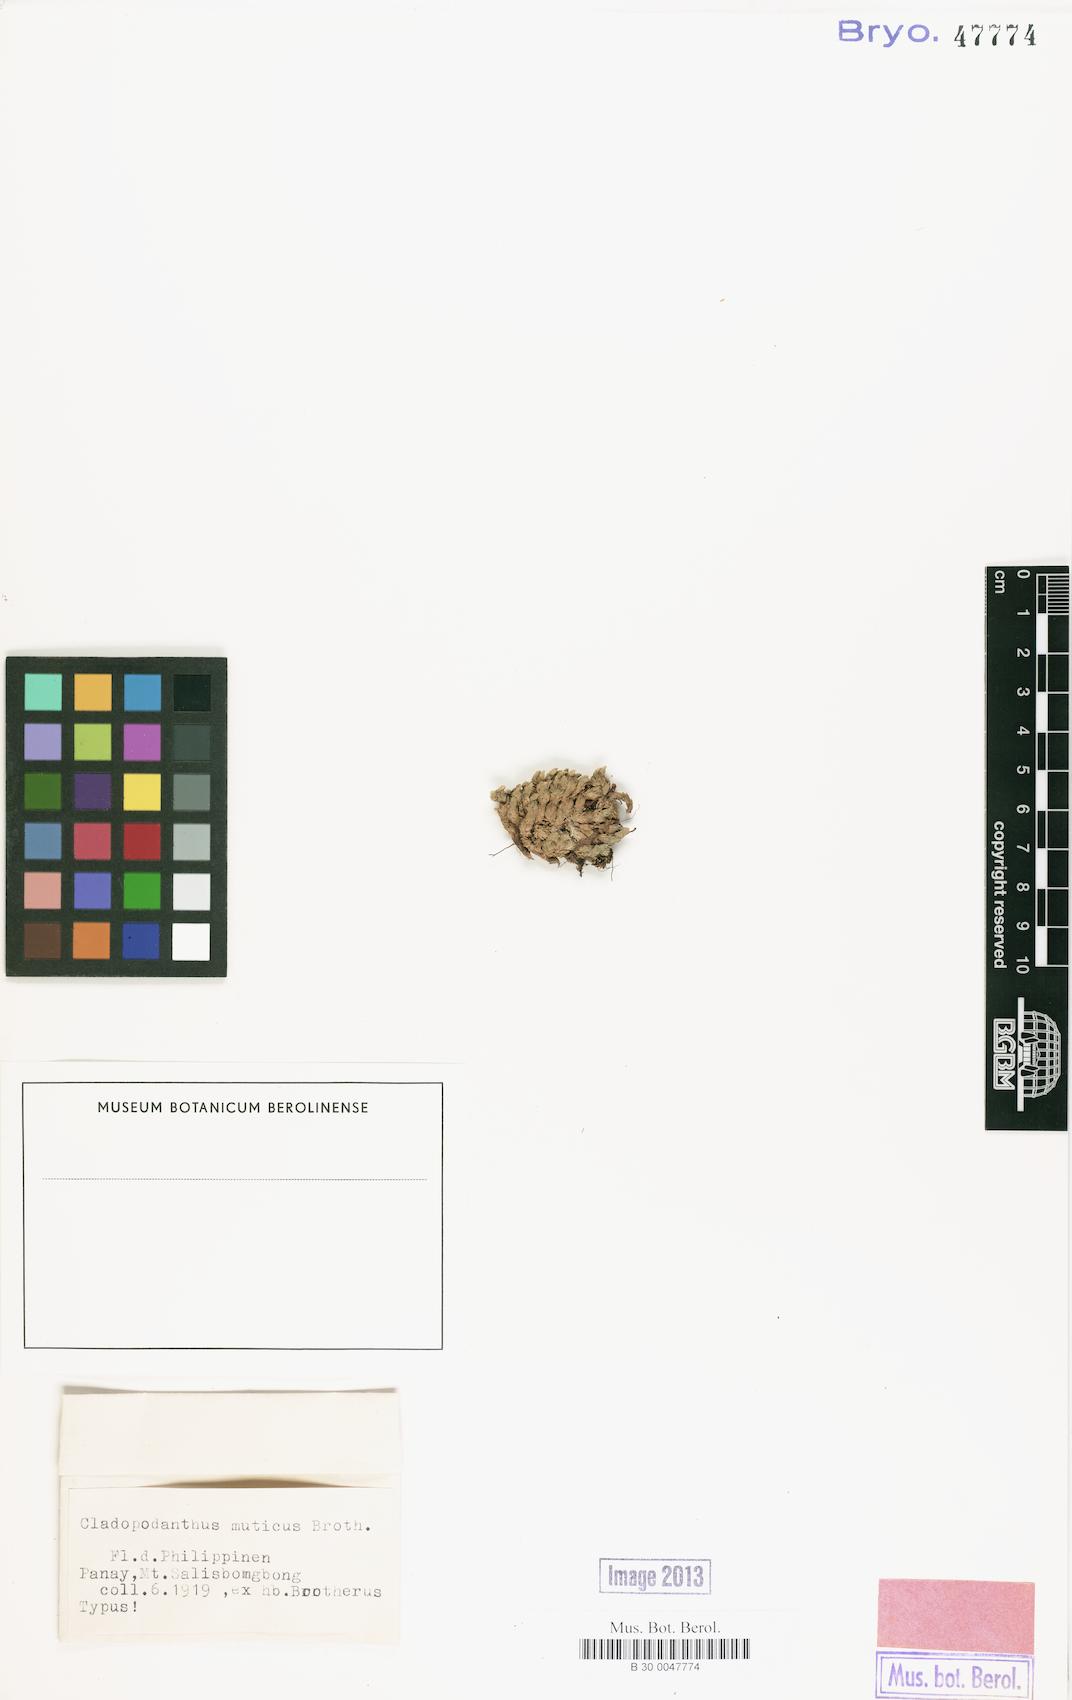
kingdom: Plantae
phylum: Bryophyta
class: Bryopsida
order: Dicranales
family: Leucobryaceae
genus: Cladopodanthus
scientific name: Cladopodanthus heterophyllus
